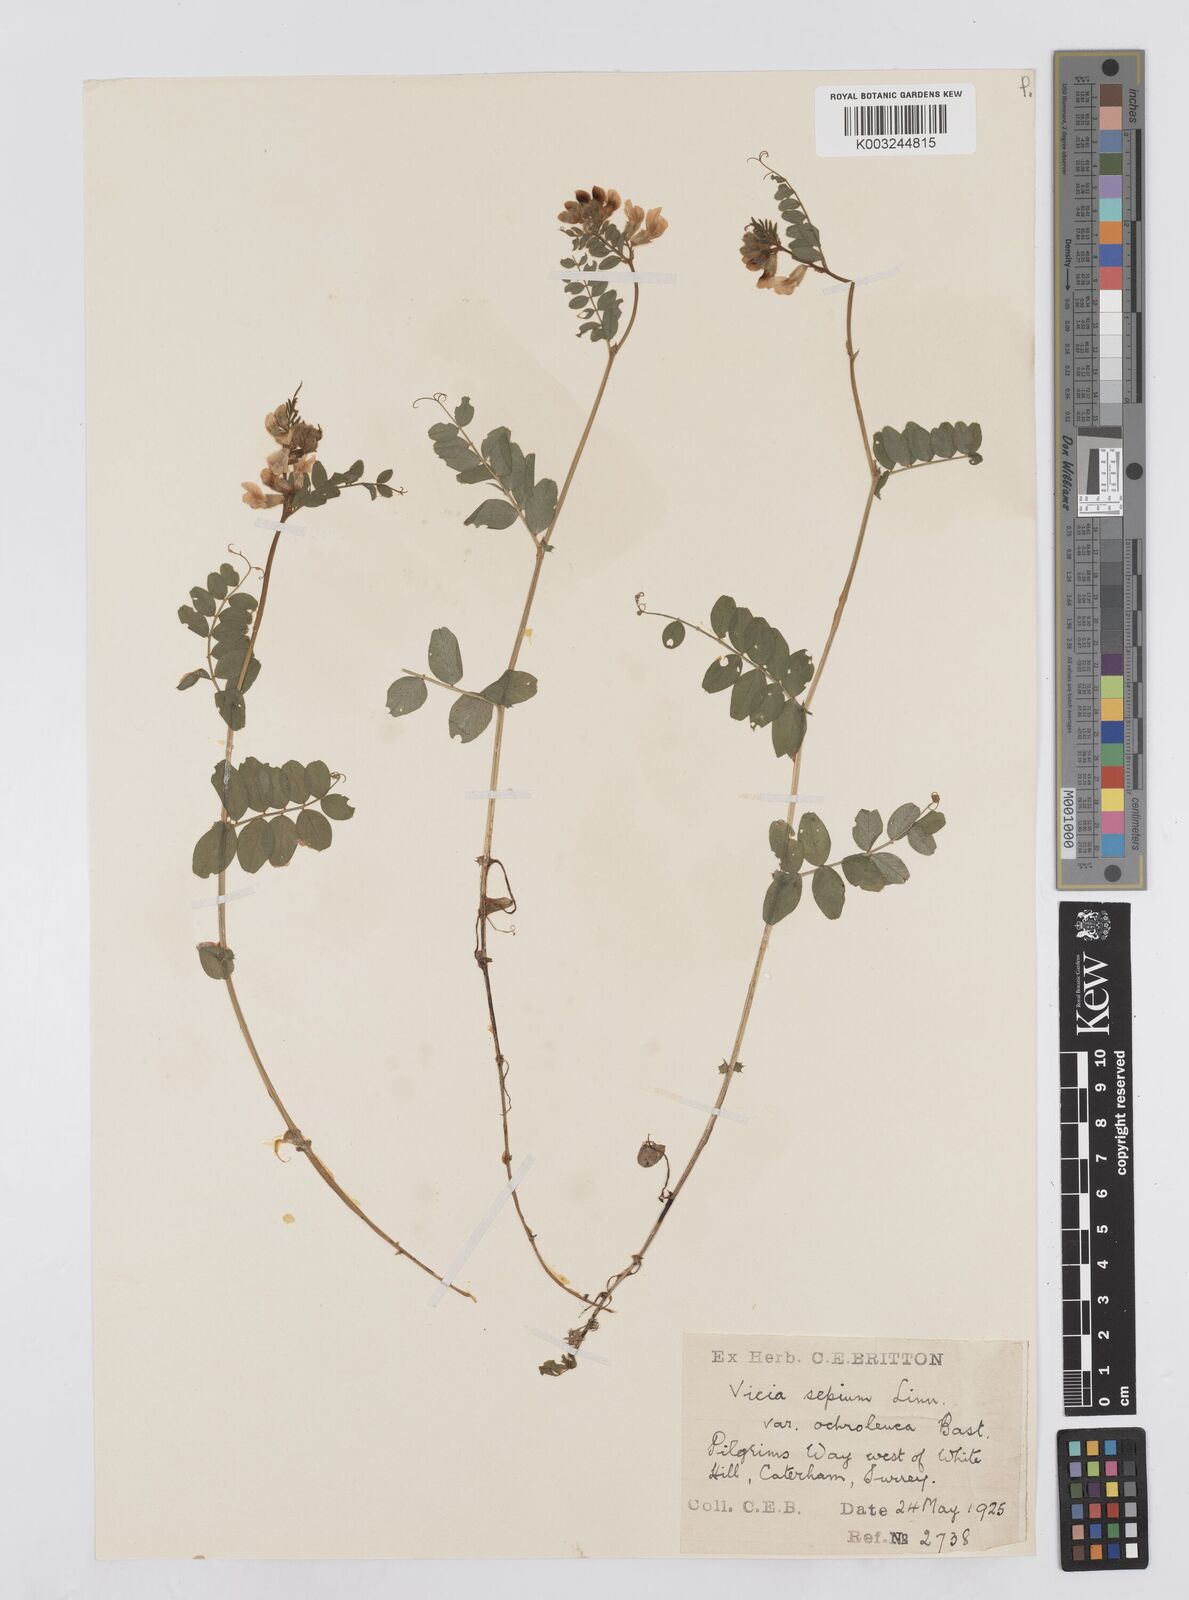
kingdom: Plantae
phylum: Tracheophyta
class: Magnoliopsida
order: Fabales
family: Fabaceae
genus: Vicia
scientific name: Vicia sepium
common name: Bush vetch
